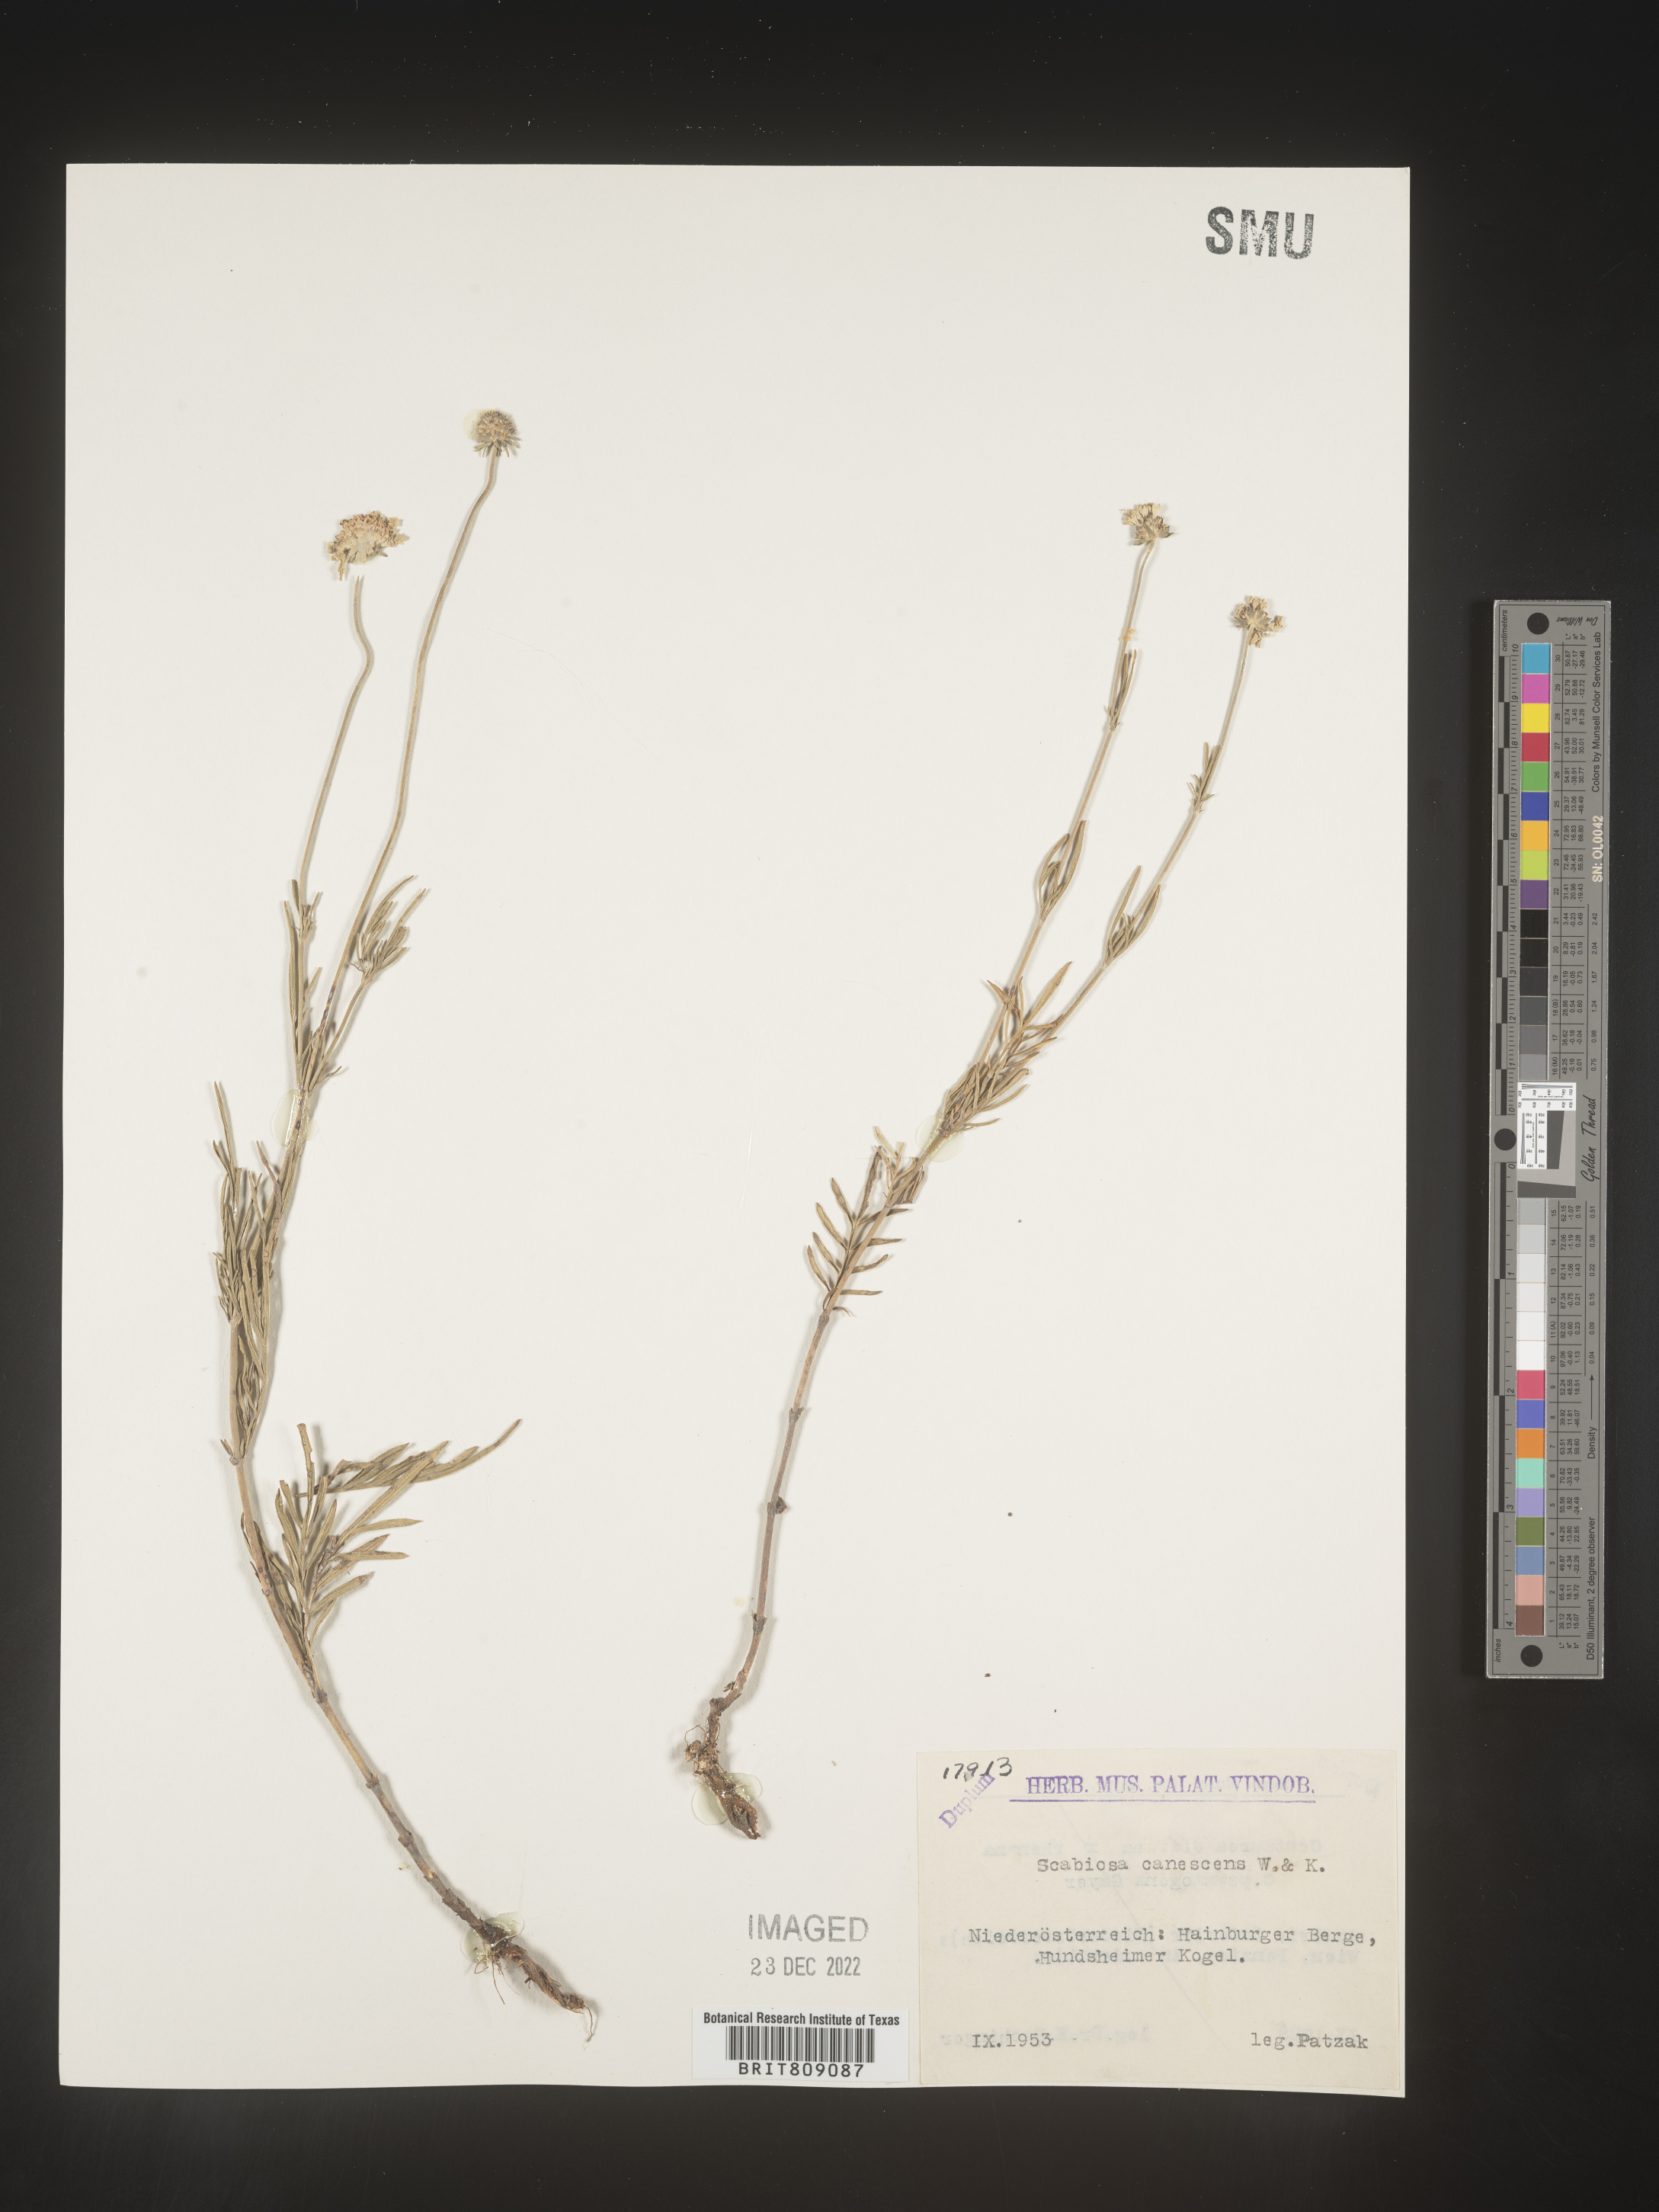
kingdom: Plantae
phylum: Tracheophyta
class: Magnoliopsida
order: Dipsacales
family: Caprifoliaceae
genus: Scabiosa
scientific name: Scabiosa
